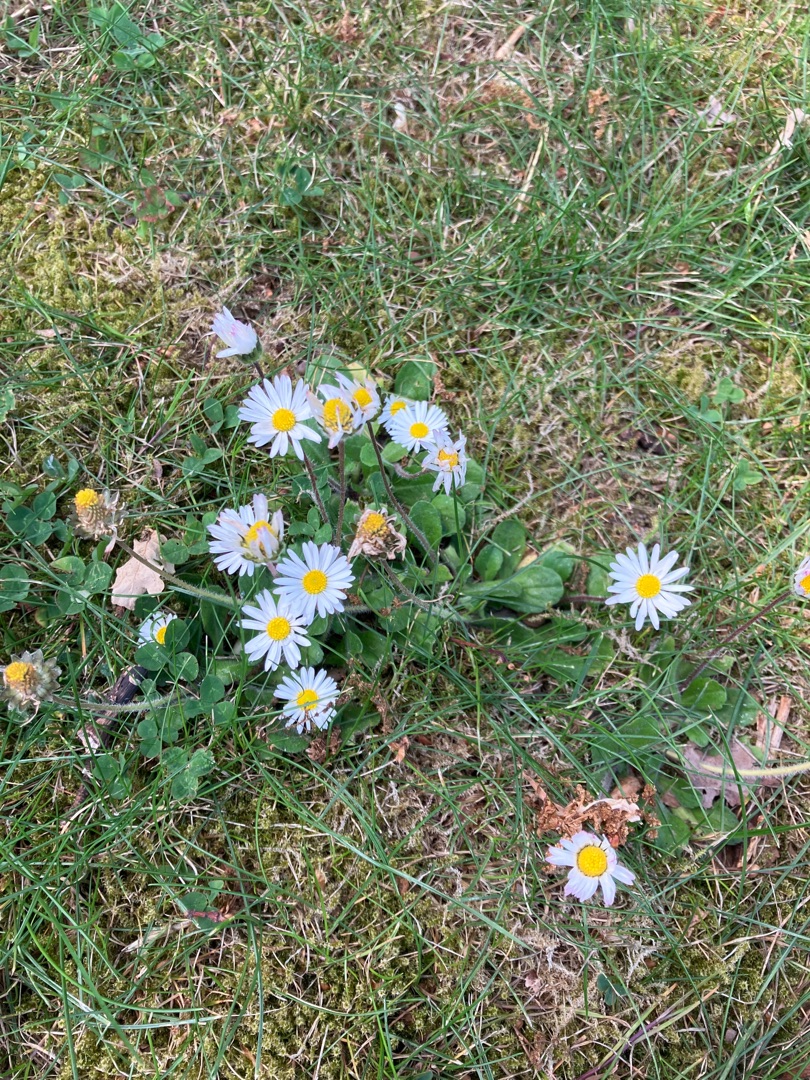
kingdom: Plantae
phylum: Tracheophyta
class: Magnoliopsida
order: Asterales
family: Asteraceae
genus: Bellis
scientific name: Bellis perennis
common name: Tusindfryd
